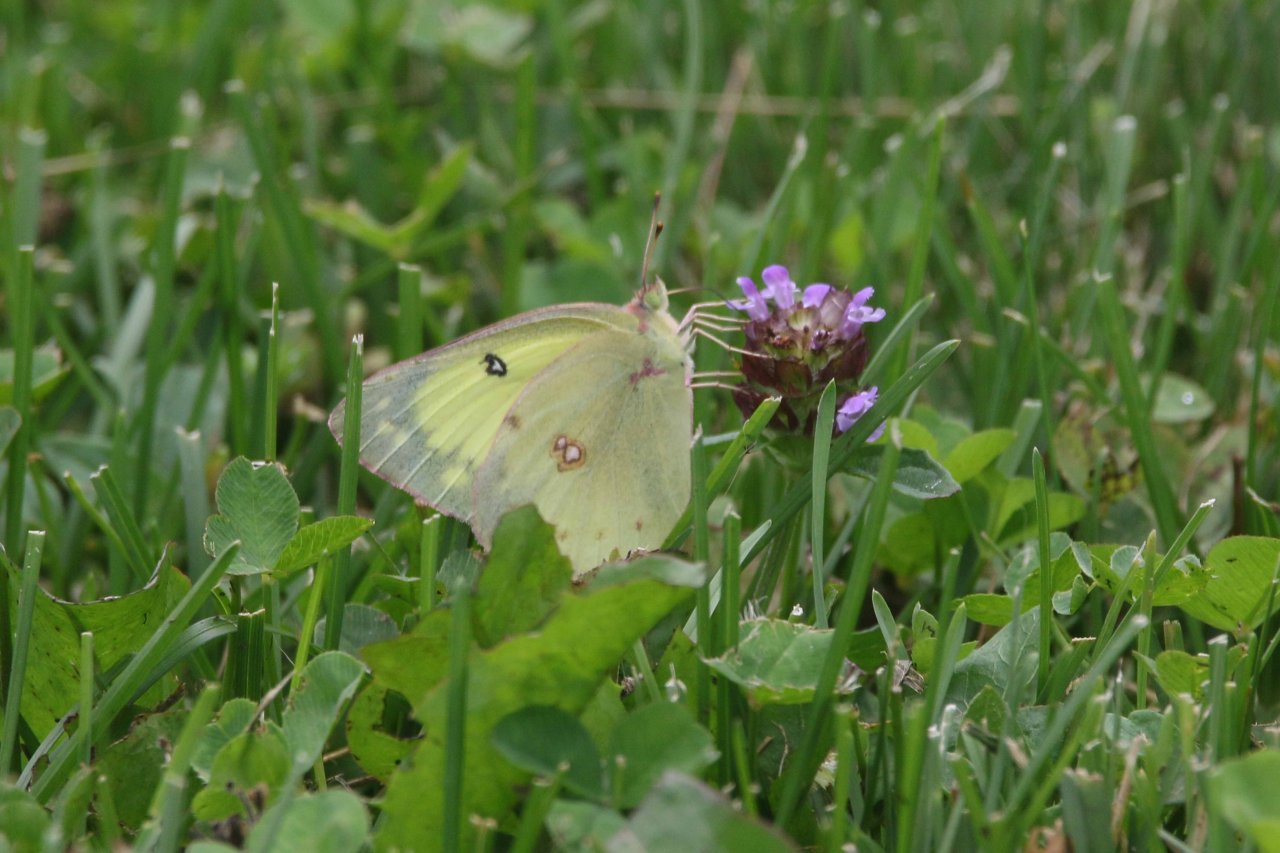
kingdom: Animalia
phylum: Arthropoda
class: Insecta
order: Lepidoptera
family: Pieridae
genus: Colias
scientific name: Colias philodice
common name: Clouded Sulphur
